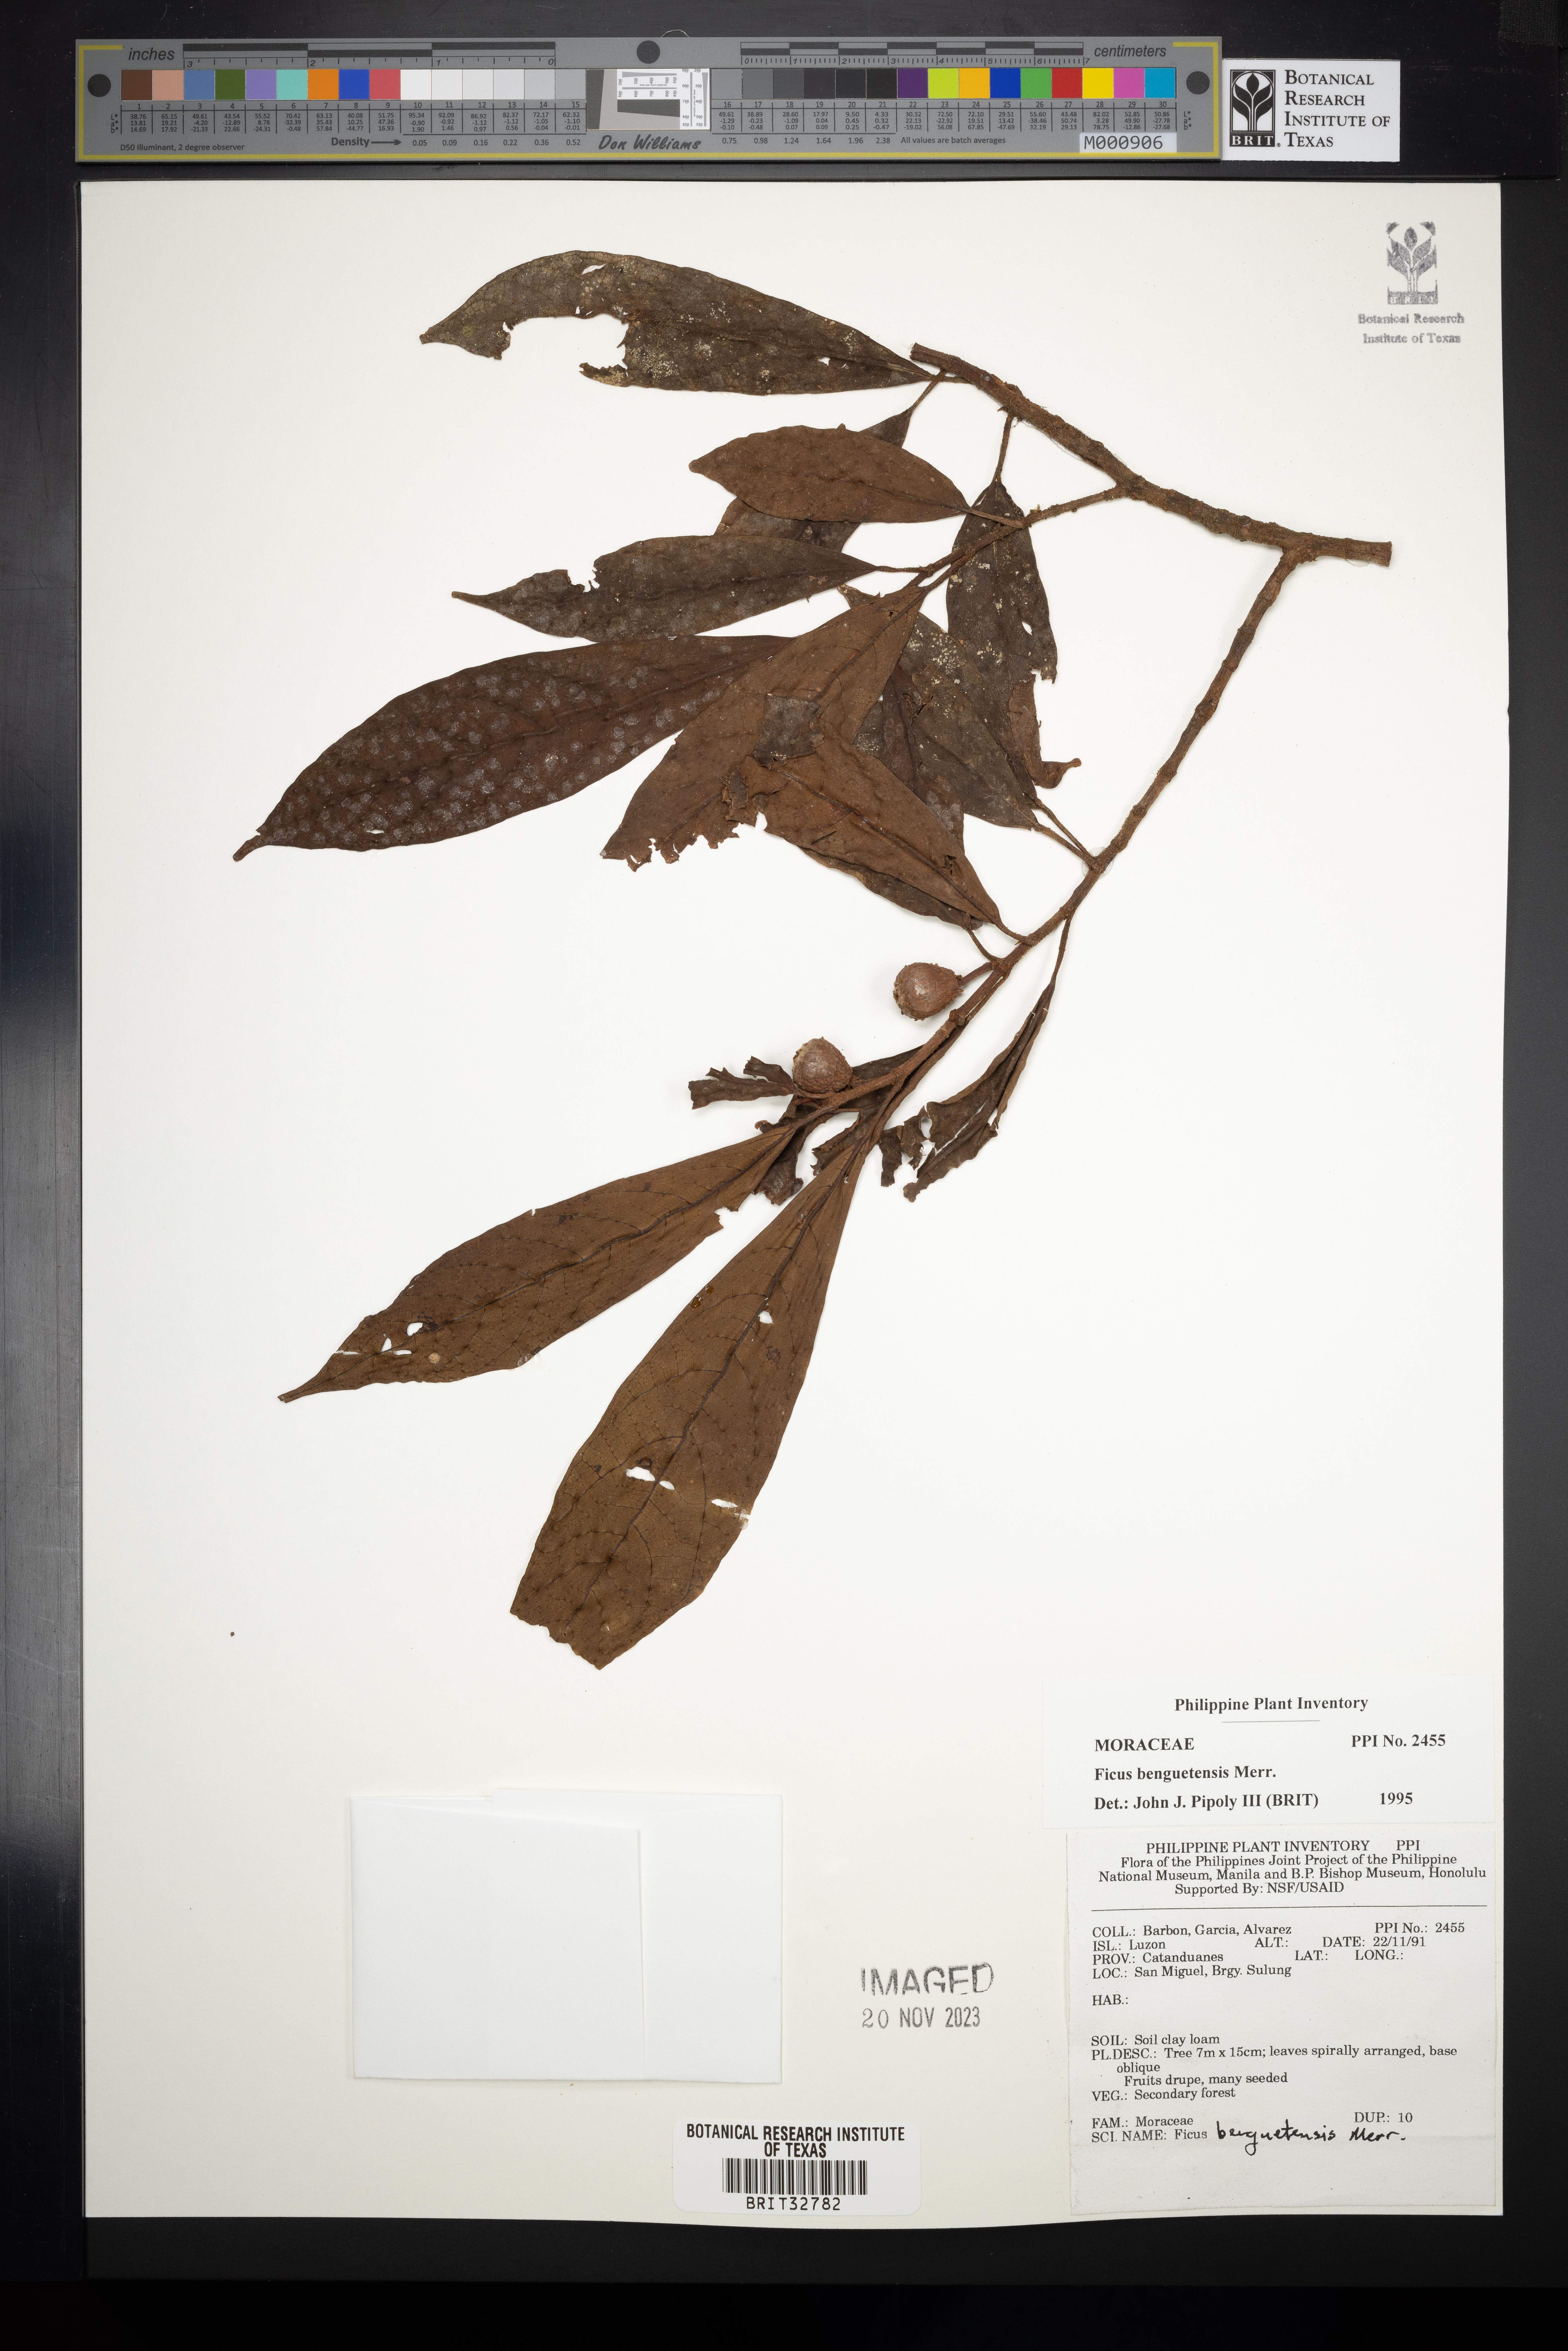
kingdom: Plantae
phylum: Tracheophyta
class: Magnoliopsida
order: Rosales
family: Moraceae
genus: Ficus
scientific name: Ficus benguetensis
